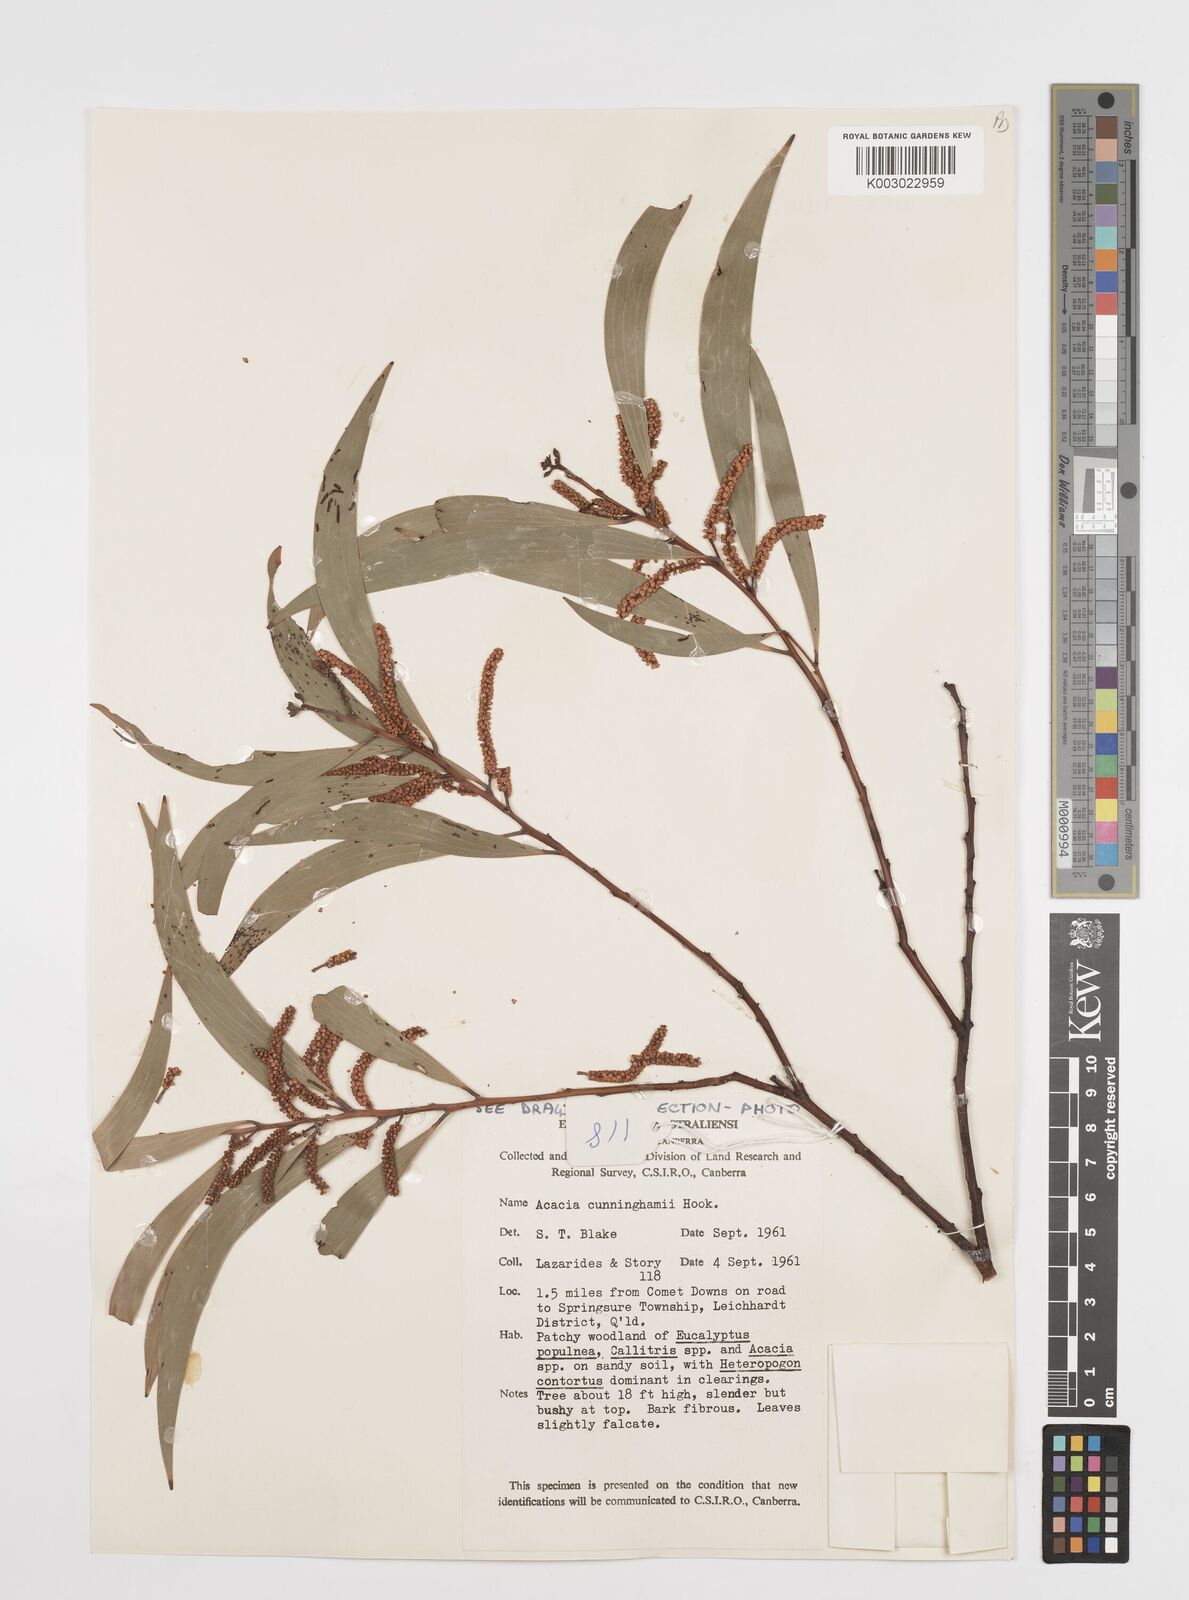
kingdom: Plantae
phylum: Tracheophyta
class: Magnoliopsida
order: Fabales
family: Fabaceae
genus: Acacia
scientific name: Acacia longispicata
